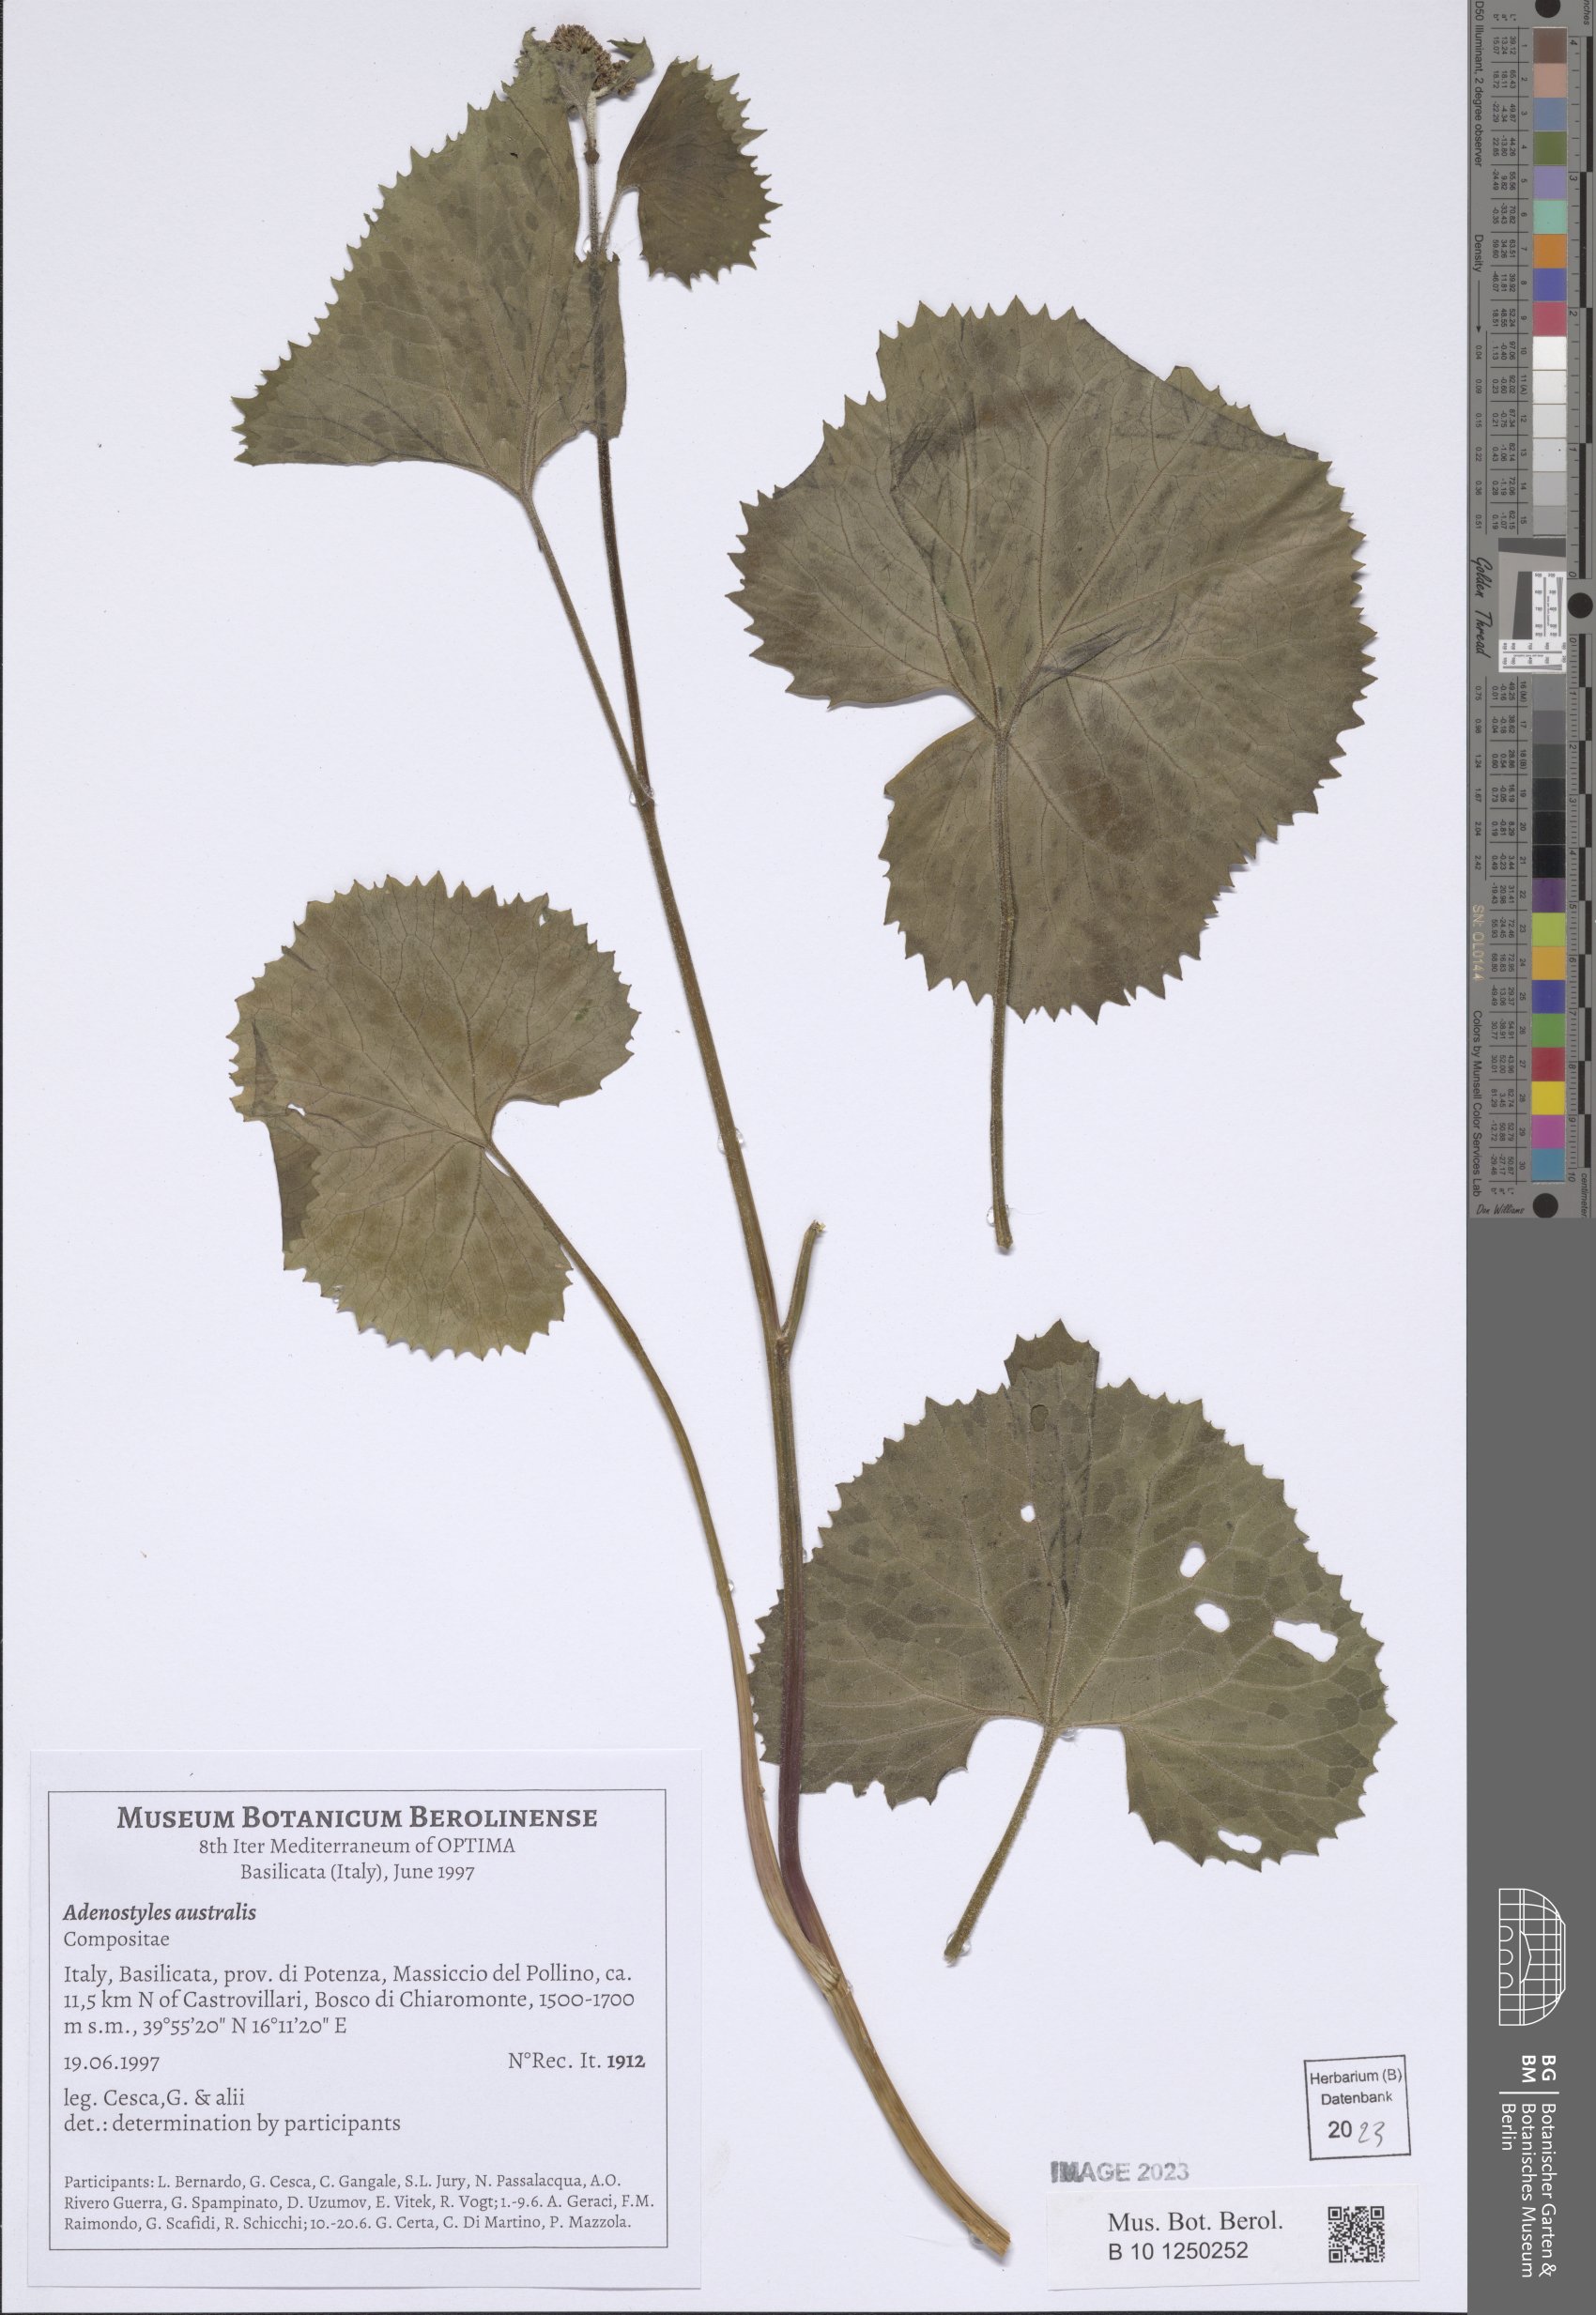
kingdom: Plantae
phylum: Tracheophyta
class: Magnoliopsida
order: Asterales
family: Asteraceae
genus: Adenostyles
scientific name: Adenostyles australis
